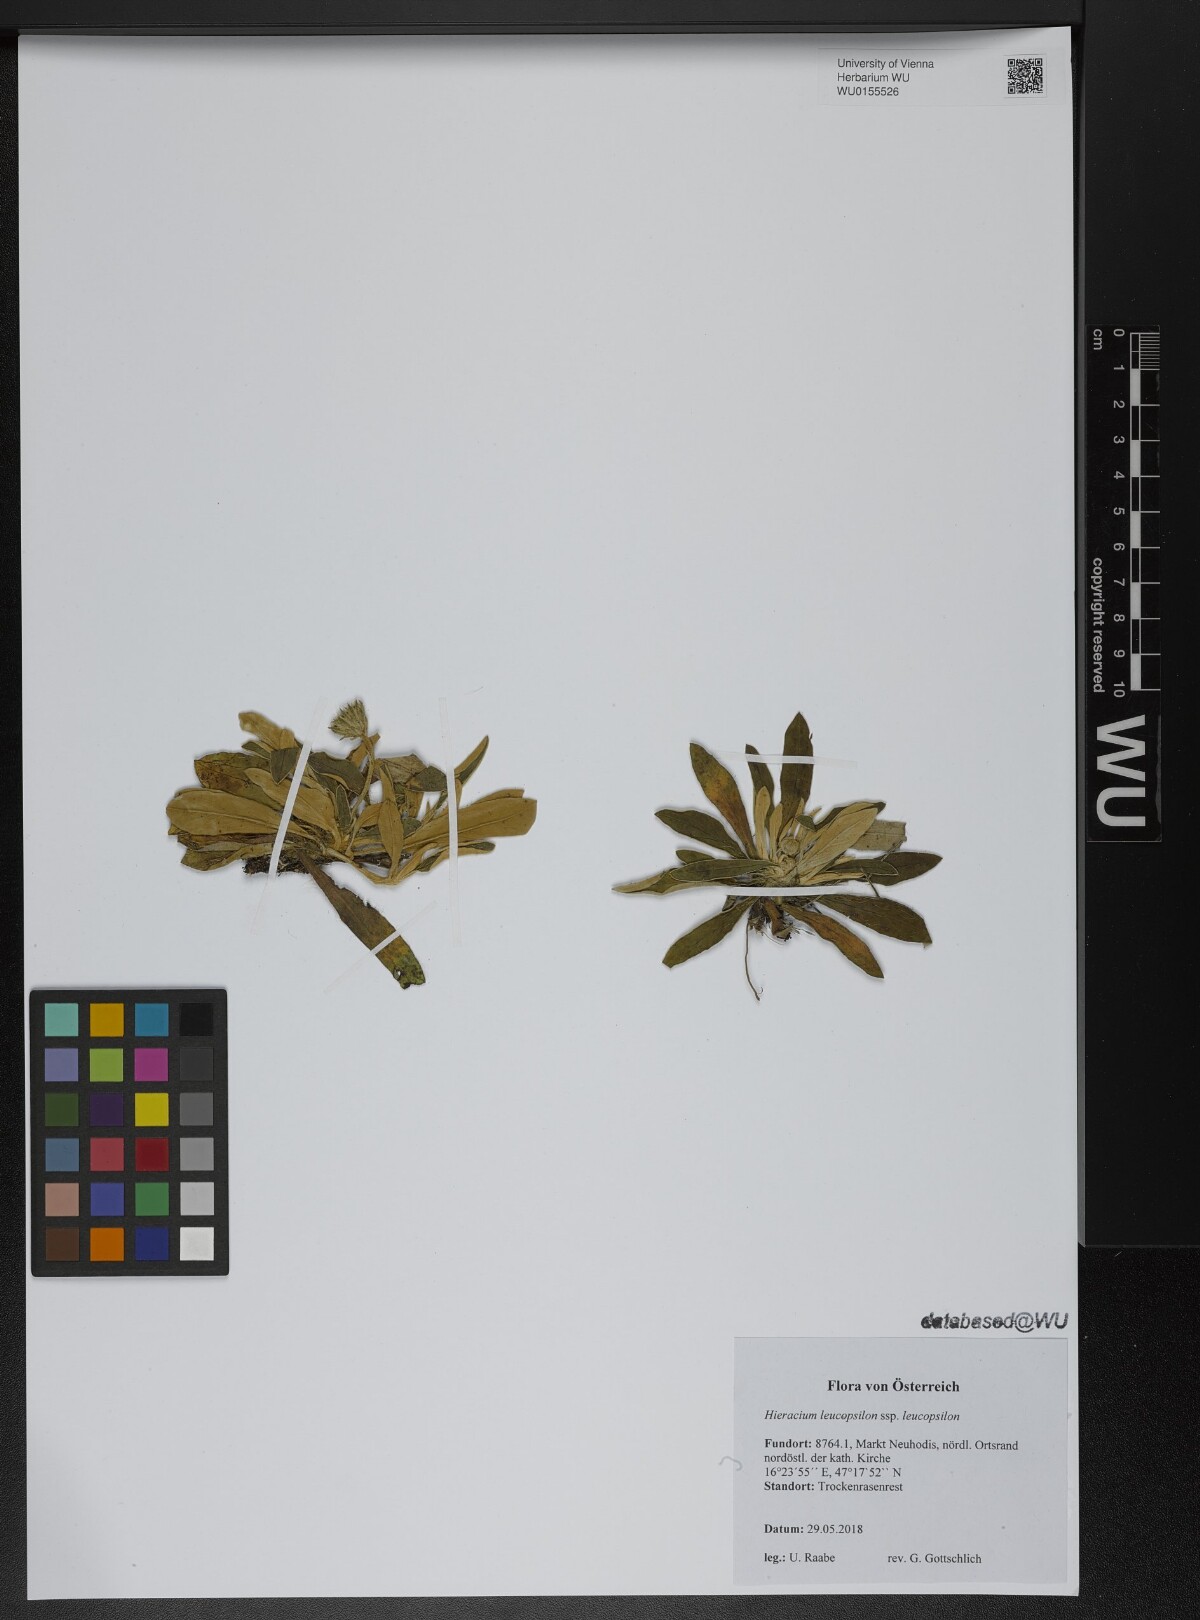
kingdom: Plantae
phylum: Tracheophyta
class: Magnoliopsida
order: Asterales
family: Asteraceae
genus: Pilosella
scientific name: Pilosella leucopsilon
